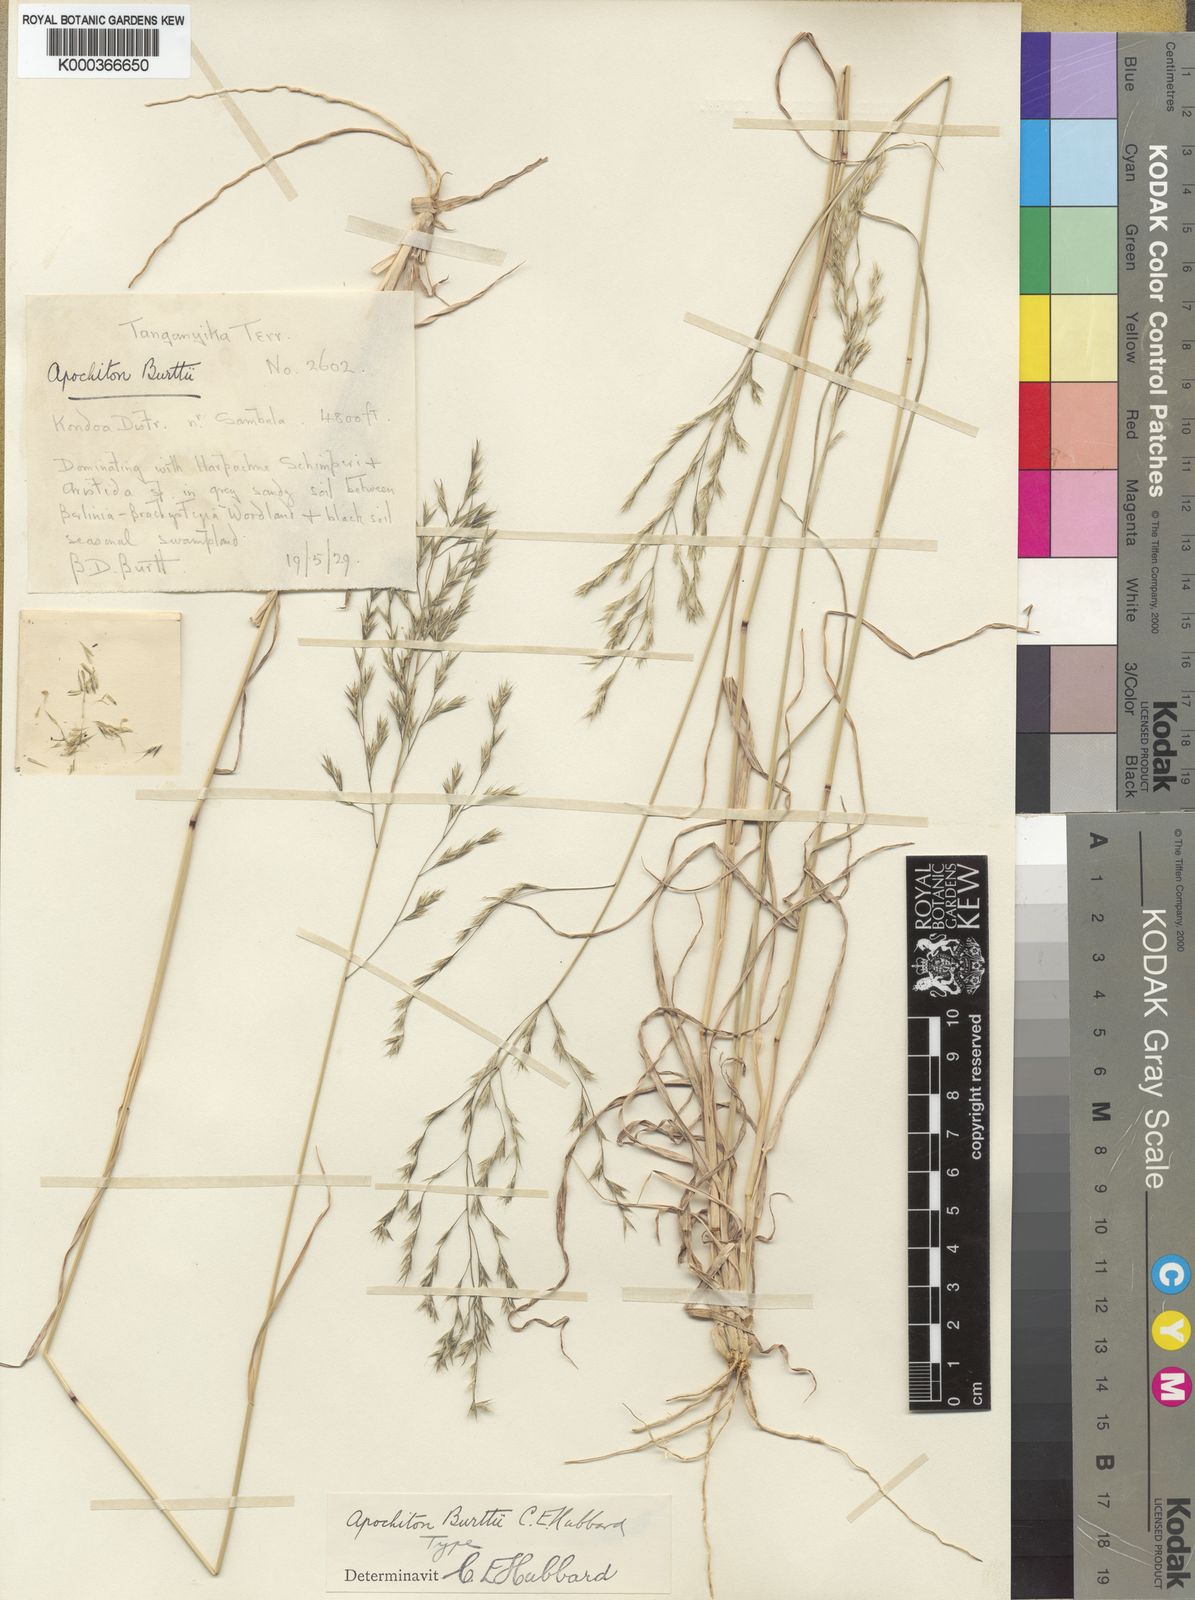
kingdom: Plantae
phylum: Tracheophyta
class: Liliopsida
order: Poales
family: Poaceae
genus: Apochiton
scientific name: Apochiton burttii
